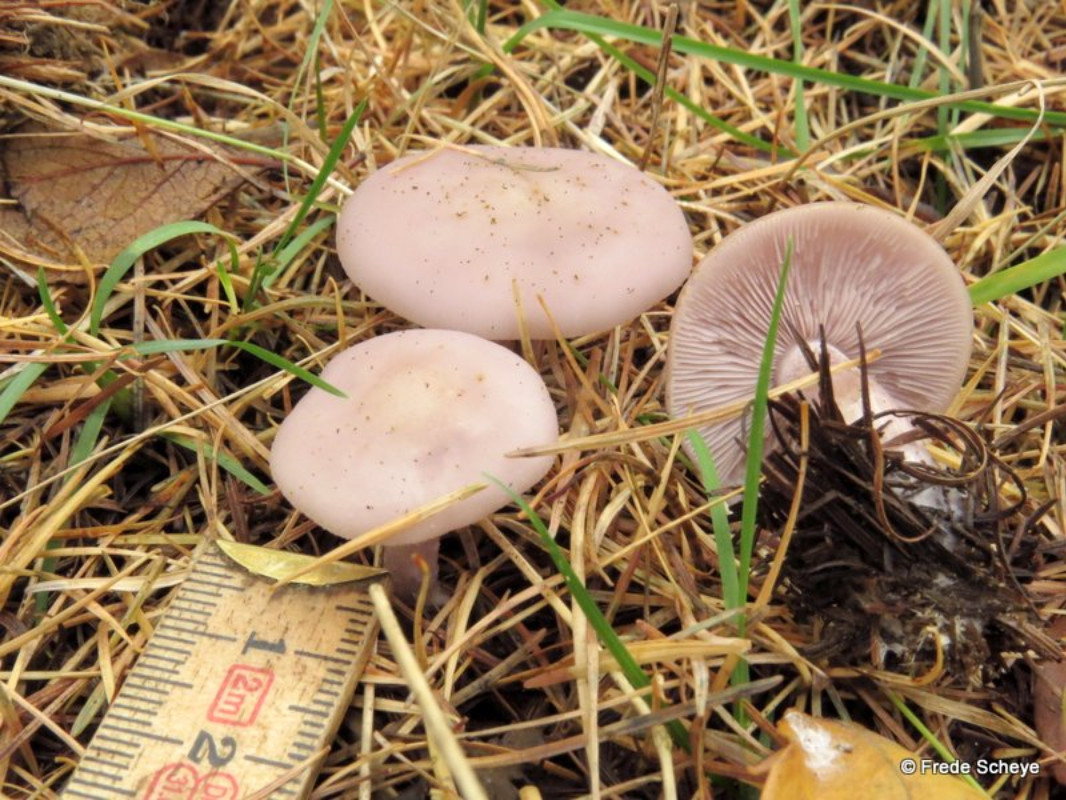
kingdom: Fungi
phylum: Basidiomycota
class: Agaricomycetes
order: Agaricales
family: Tricholomataceae
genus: Lepista
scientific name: Lepista nuda
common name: violet hekseringshat
